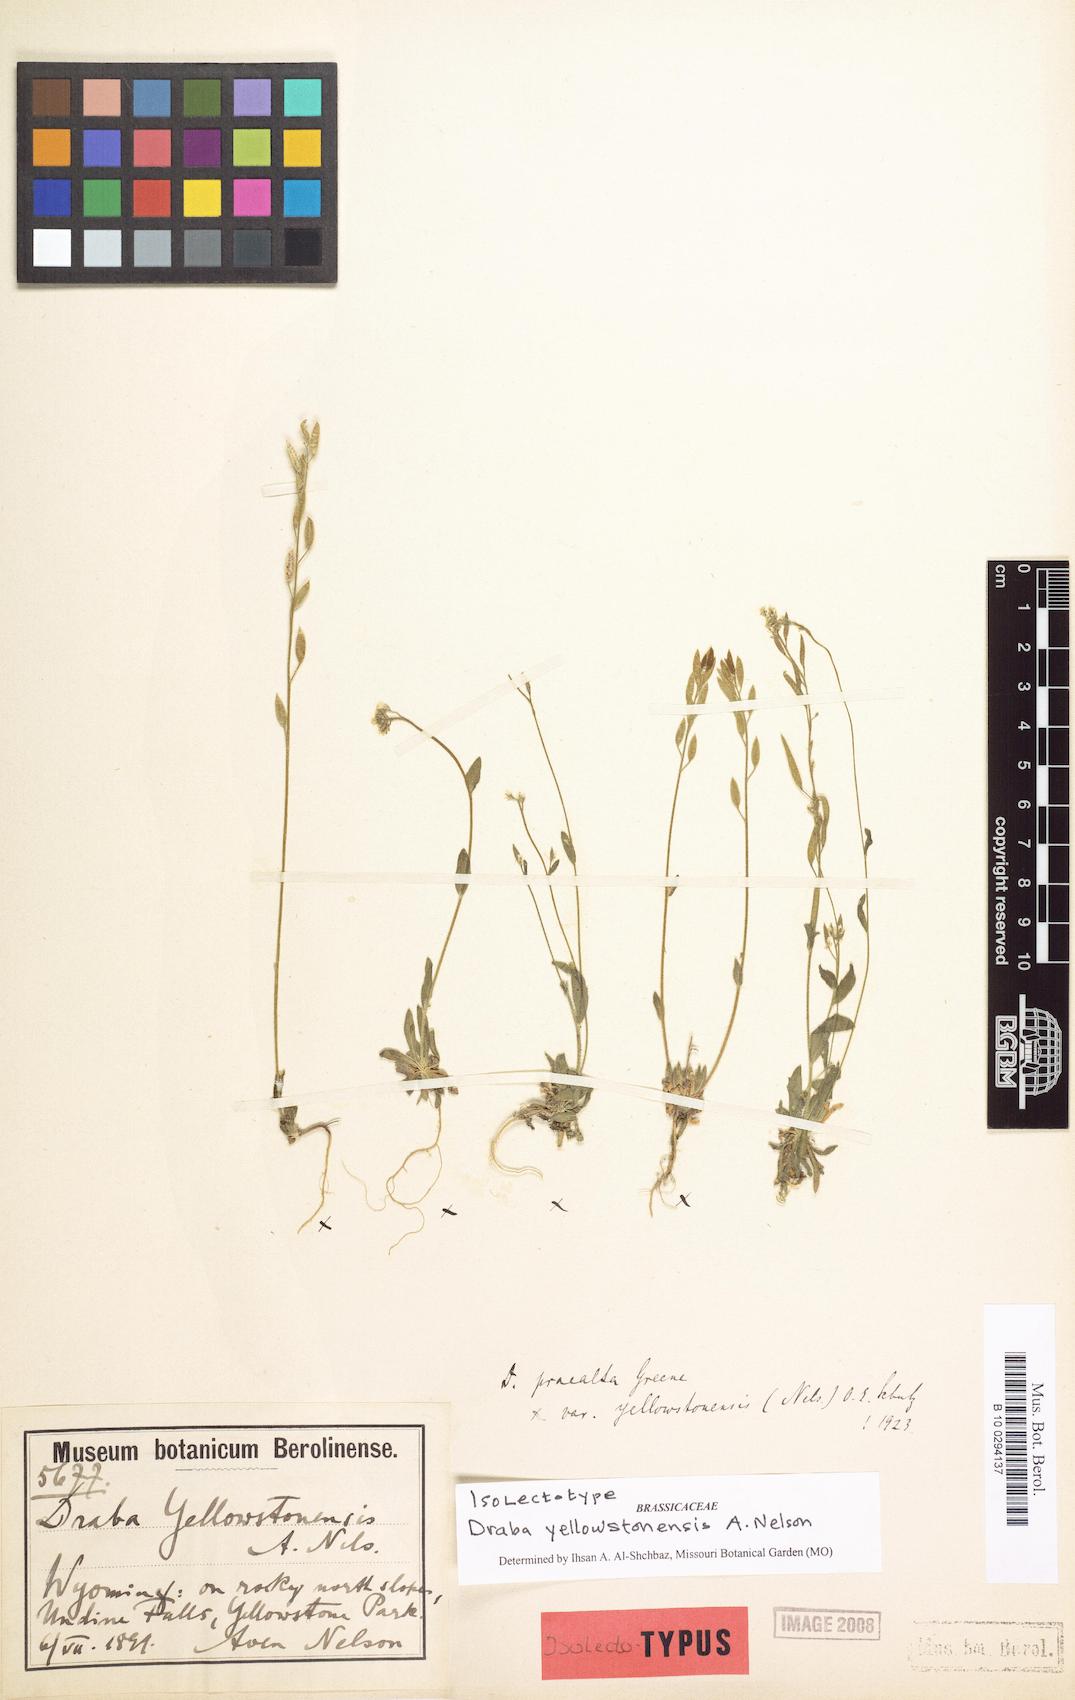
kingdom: Plantae
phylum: Tracheophyta
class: Magnoliopsida
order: Brassicales
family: Brassicaceae
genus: Draba
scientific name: Draba praealta
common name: Tall draba
